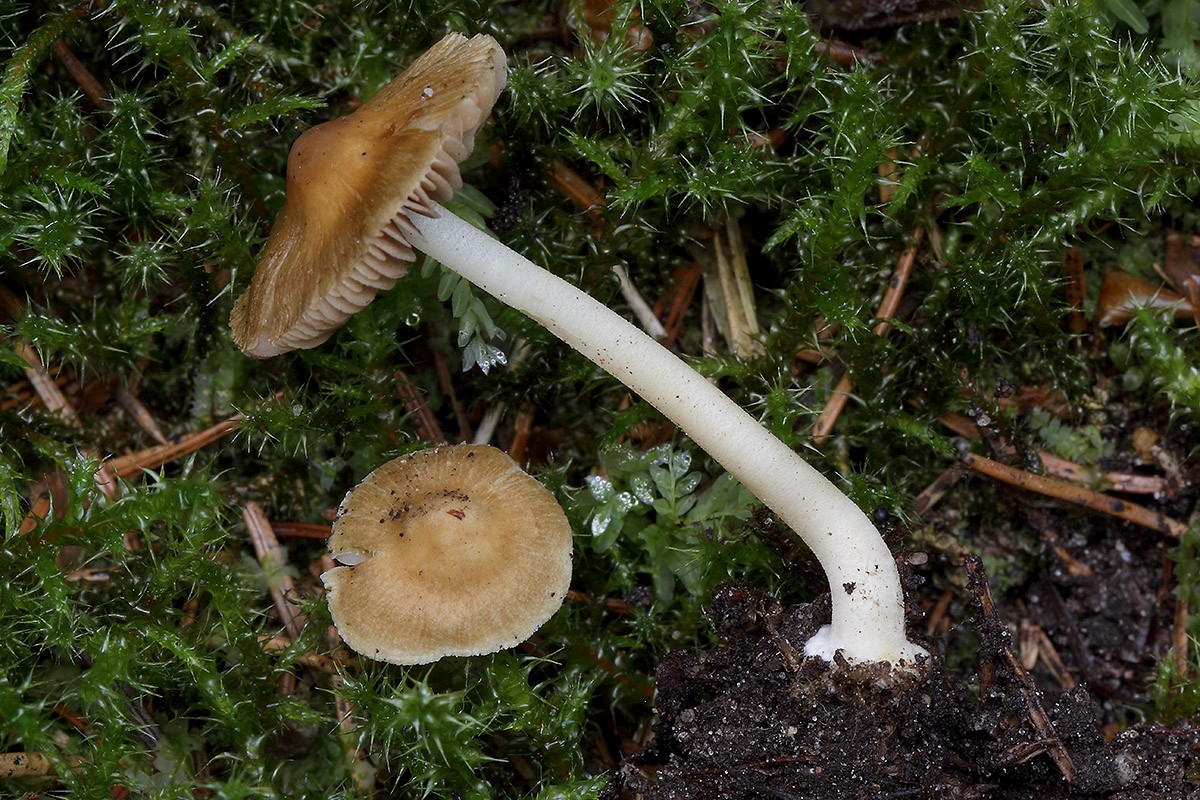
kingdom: Fungi
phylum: Basidiomycota
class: Agaricomycetes
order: Agaricales
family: Inocybaceae
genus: Inocybe
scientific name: Inocybe mixtilis
